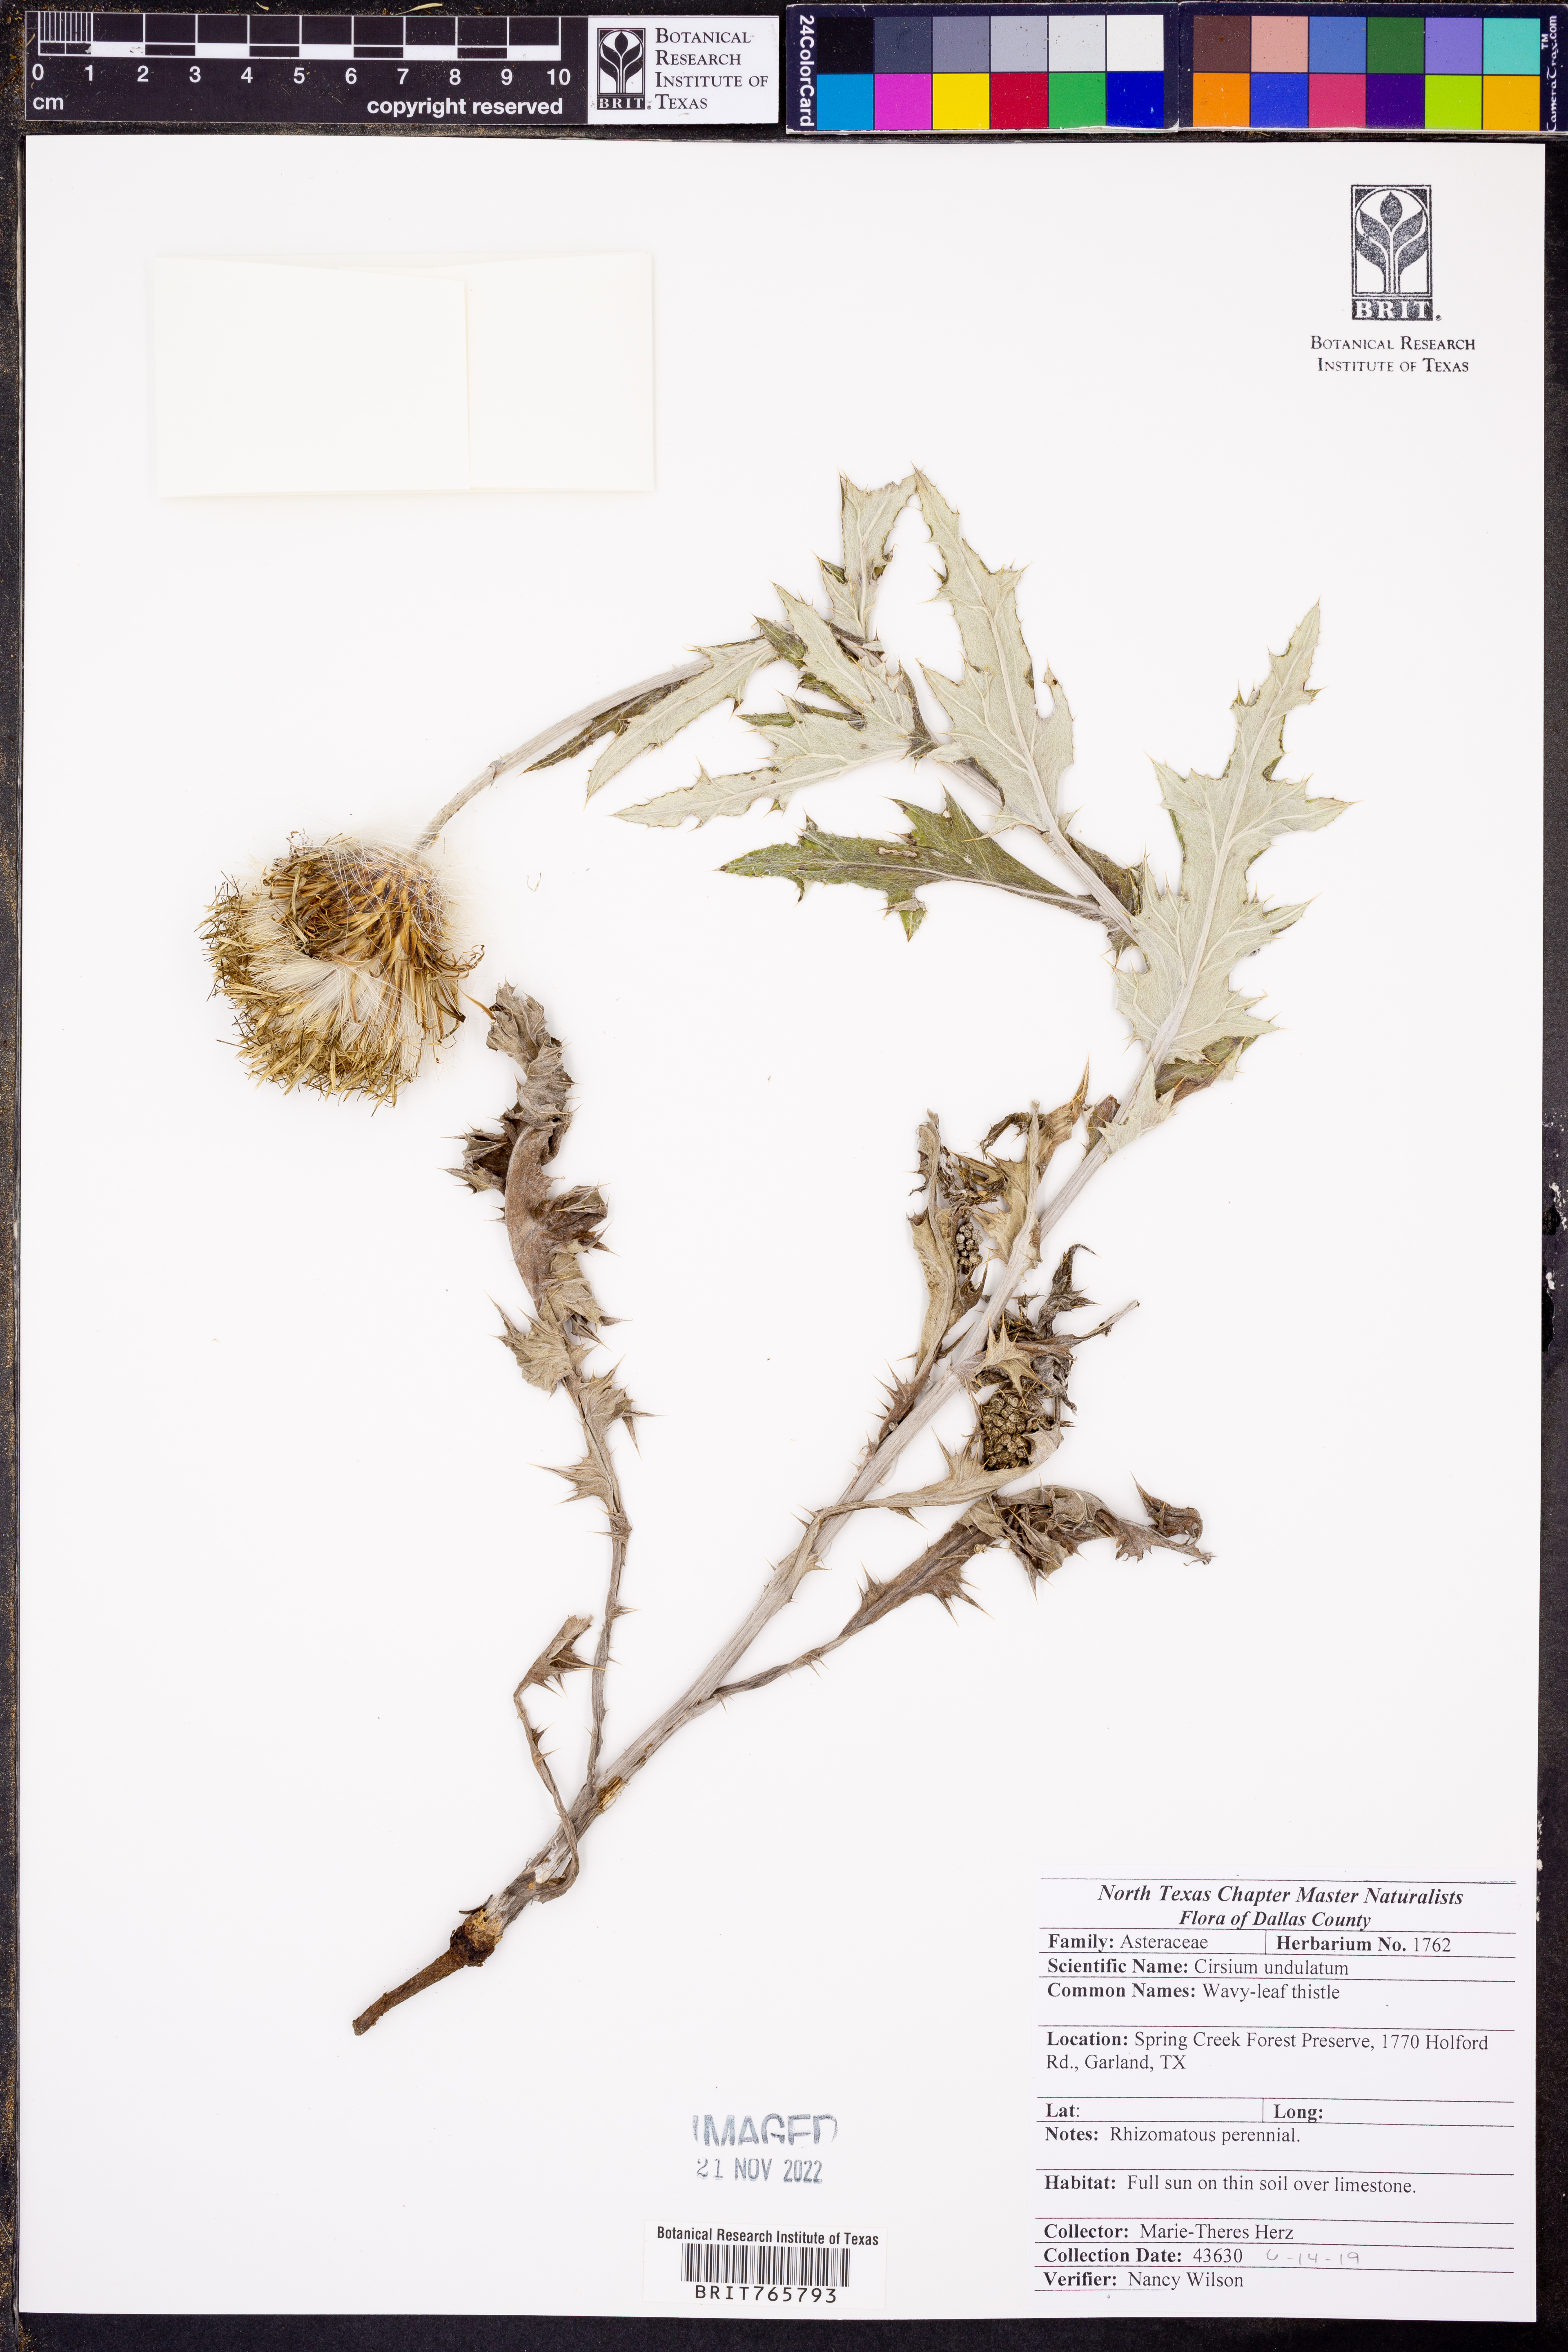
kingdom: Plantae
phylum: Tracheophyta
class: Magnoliopsida
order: Asterales
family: Asteraceae
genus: Cirsium
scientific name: Cirsium undulatum
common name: Pasture thistle
